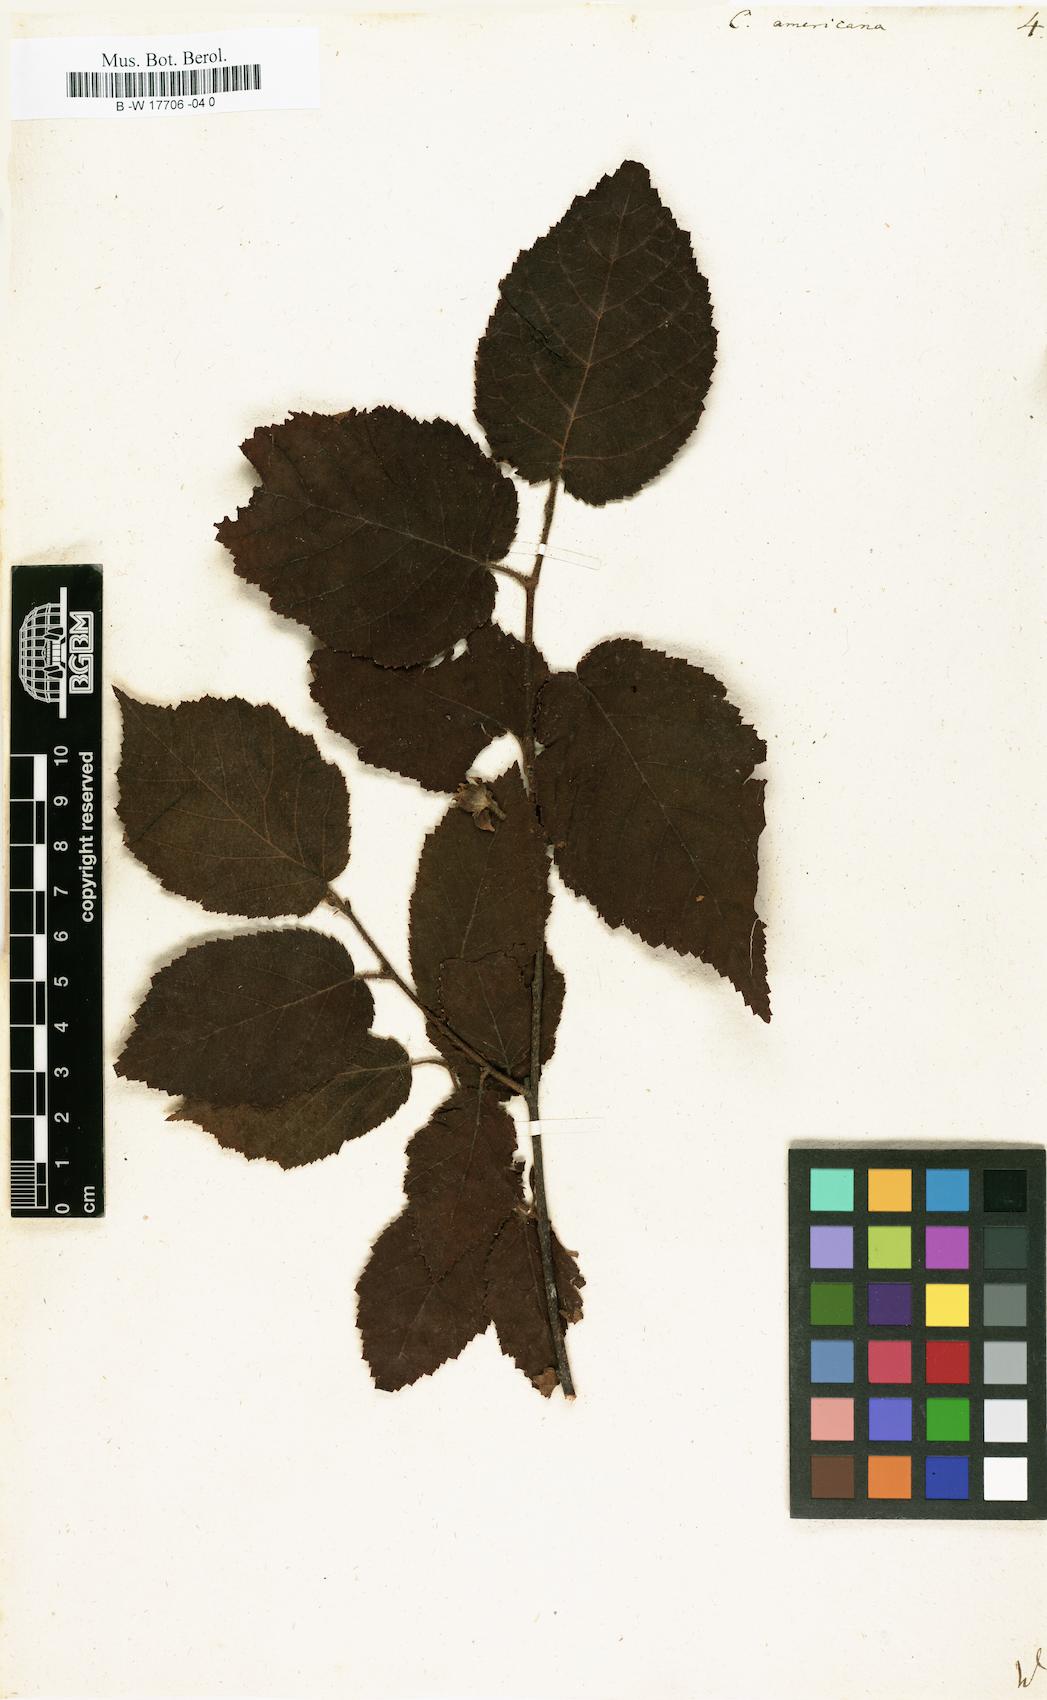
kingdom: Plantae
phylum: Tracheophyta
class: Magnoliopsida
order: Fagales
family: Betulaceae
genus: Corylus
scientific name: Corylus americana
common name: American hazel
